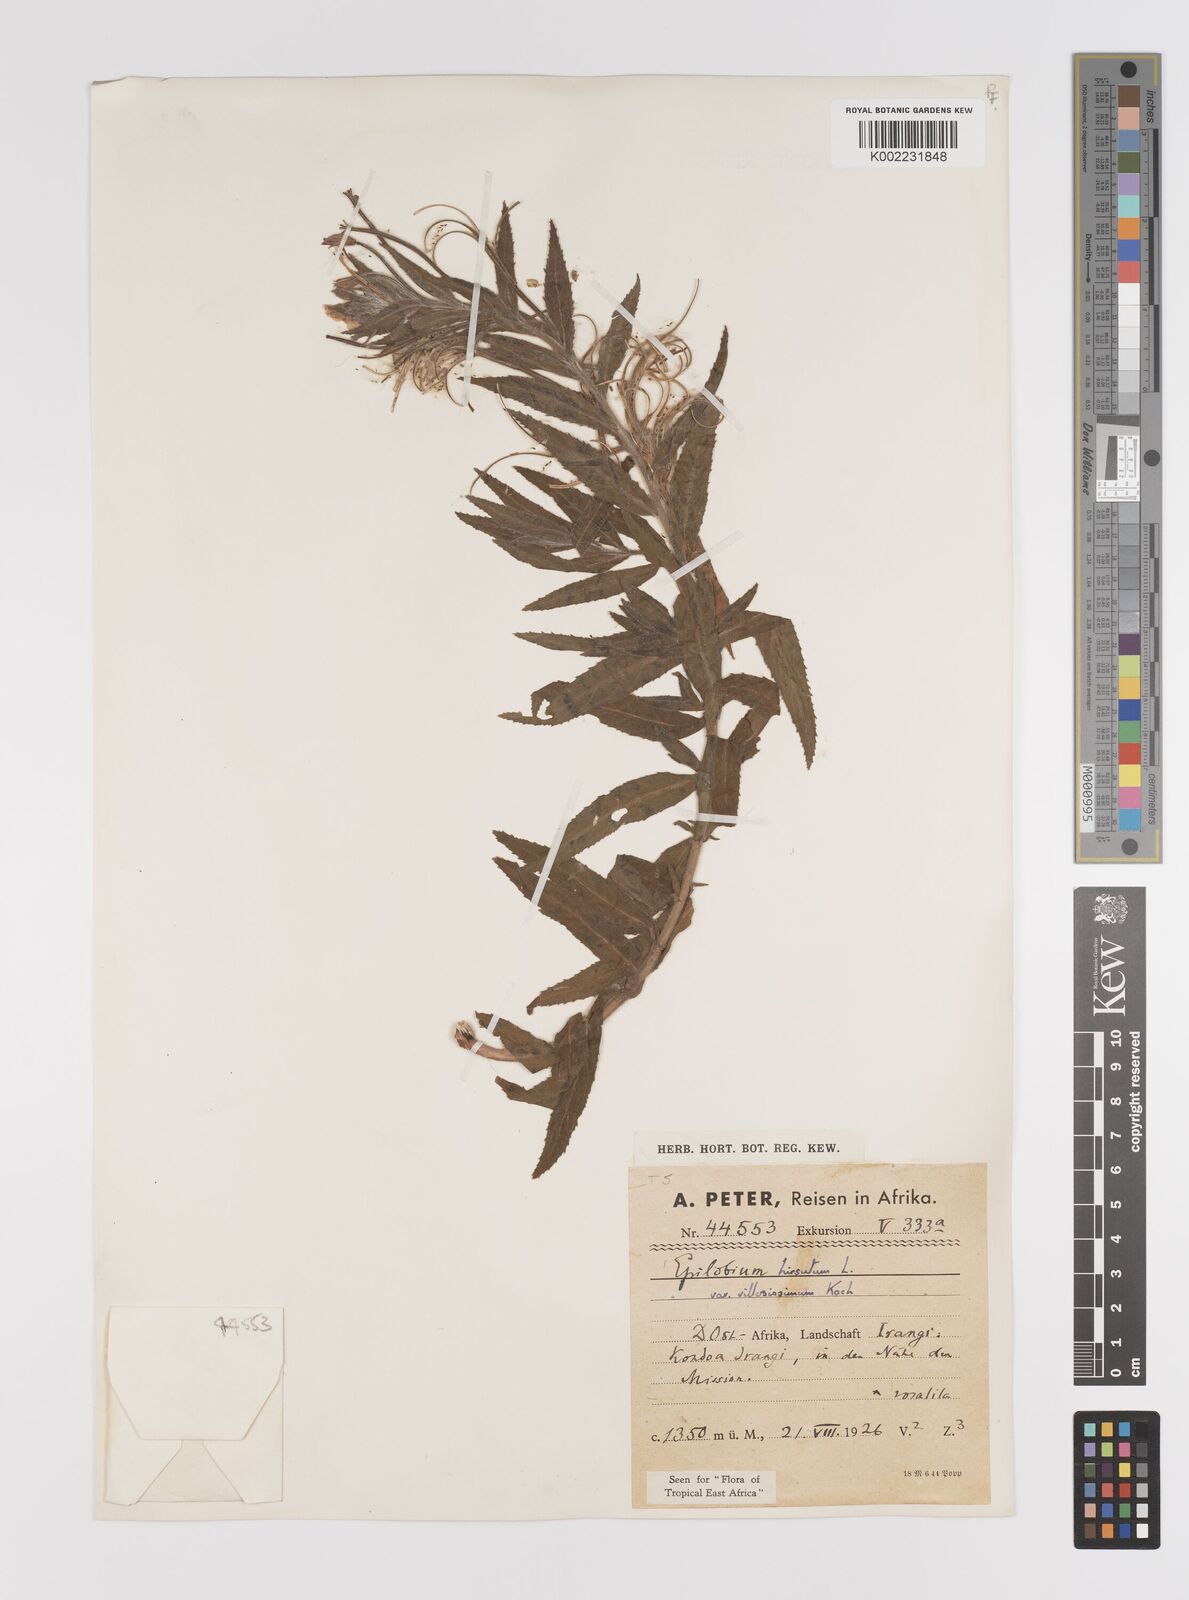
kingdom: Plantae
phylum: Tracheophyta
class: Magnoliopsida
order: Myrtales
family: Onagraceae
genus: Epilobium
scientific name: Epilobium hirsutum
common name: Great willowherb
